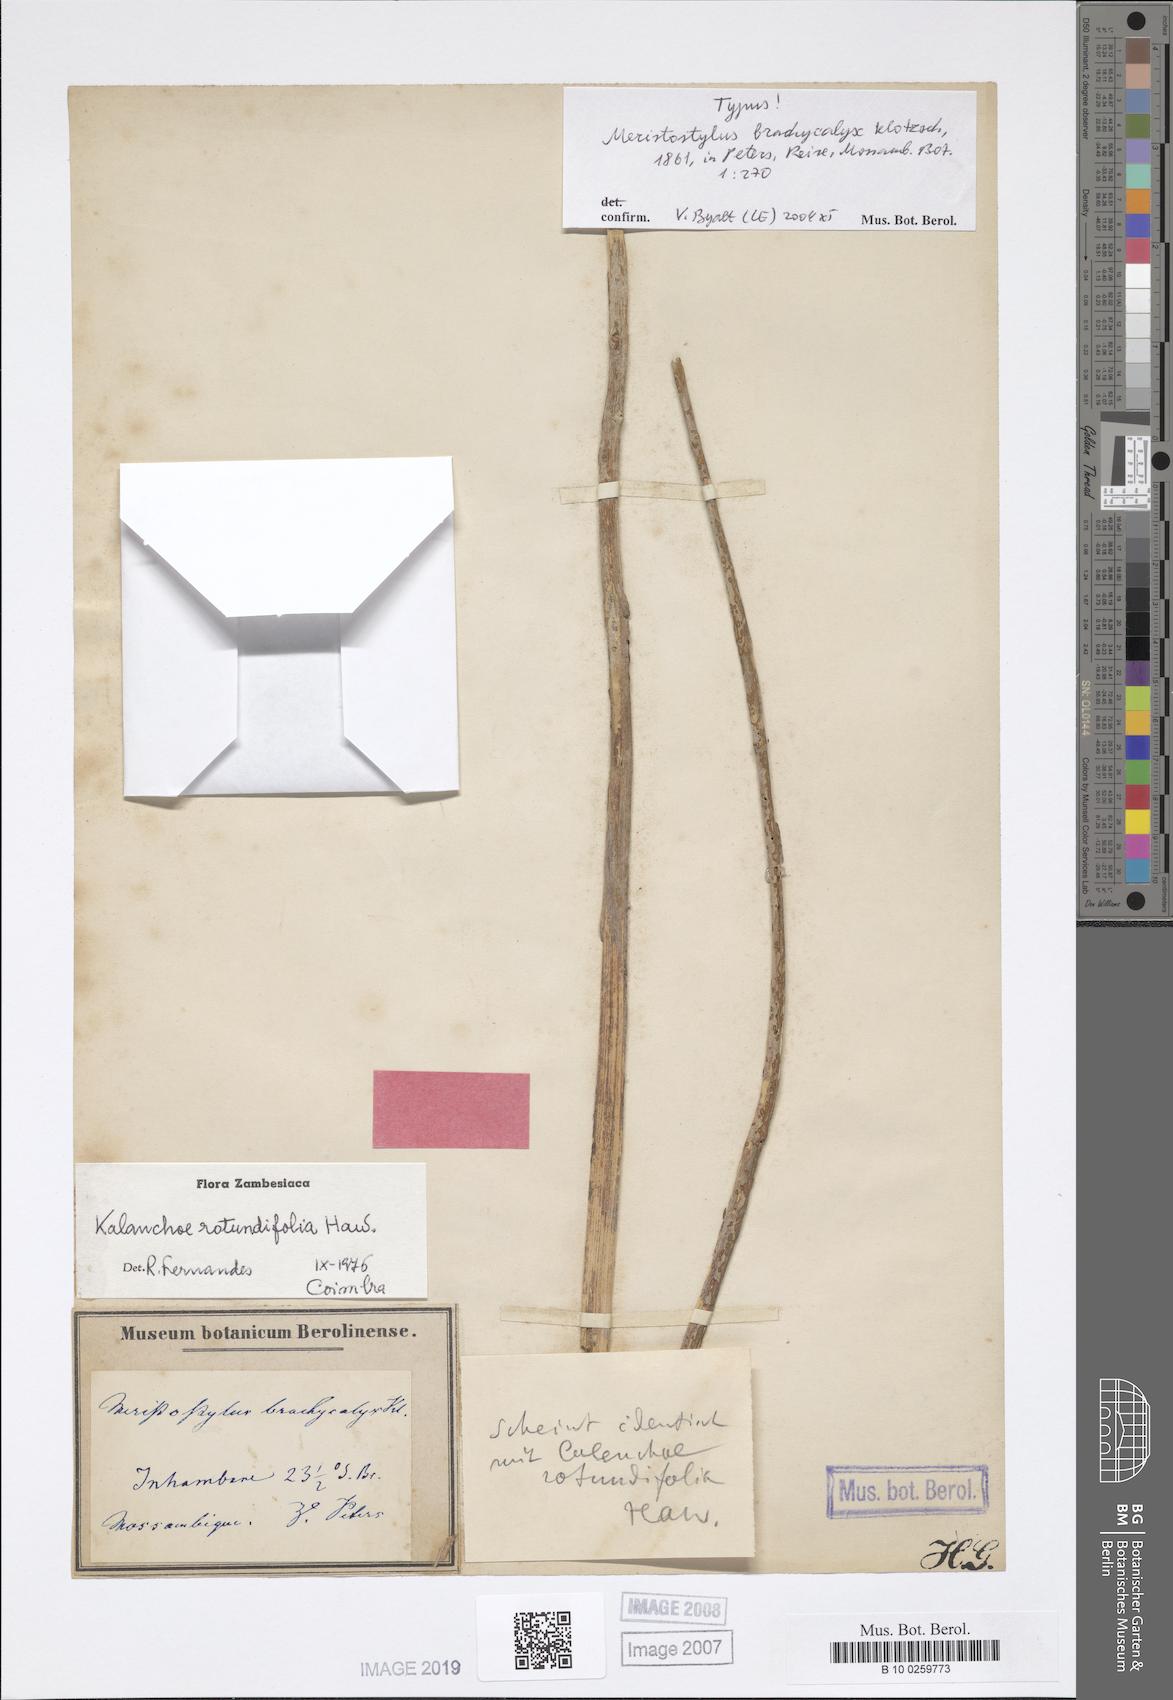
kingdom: Plantae
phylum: Tracheophyta
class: Magnoliopsida
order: Saxifragales
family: Crassulaceae
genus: Kalanchoe
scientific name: Kalanchoe rotundifolia
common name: Common kalanchoe
